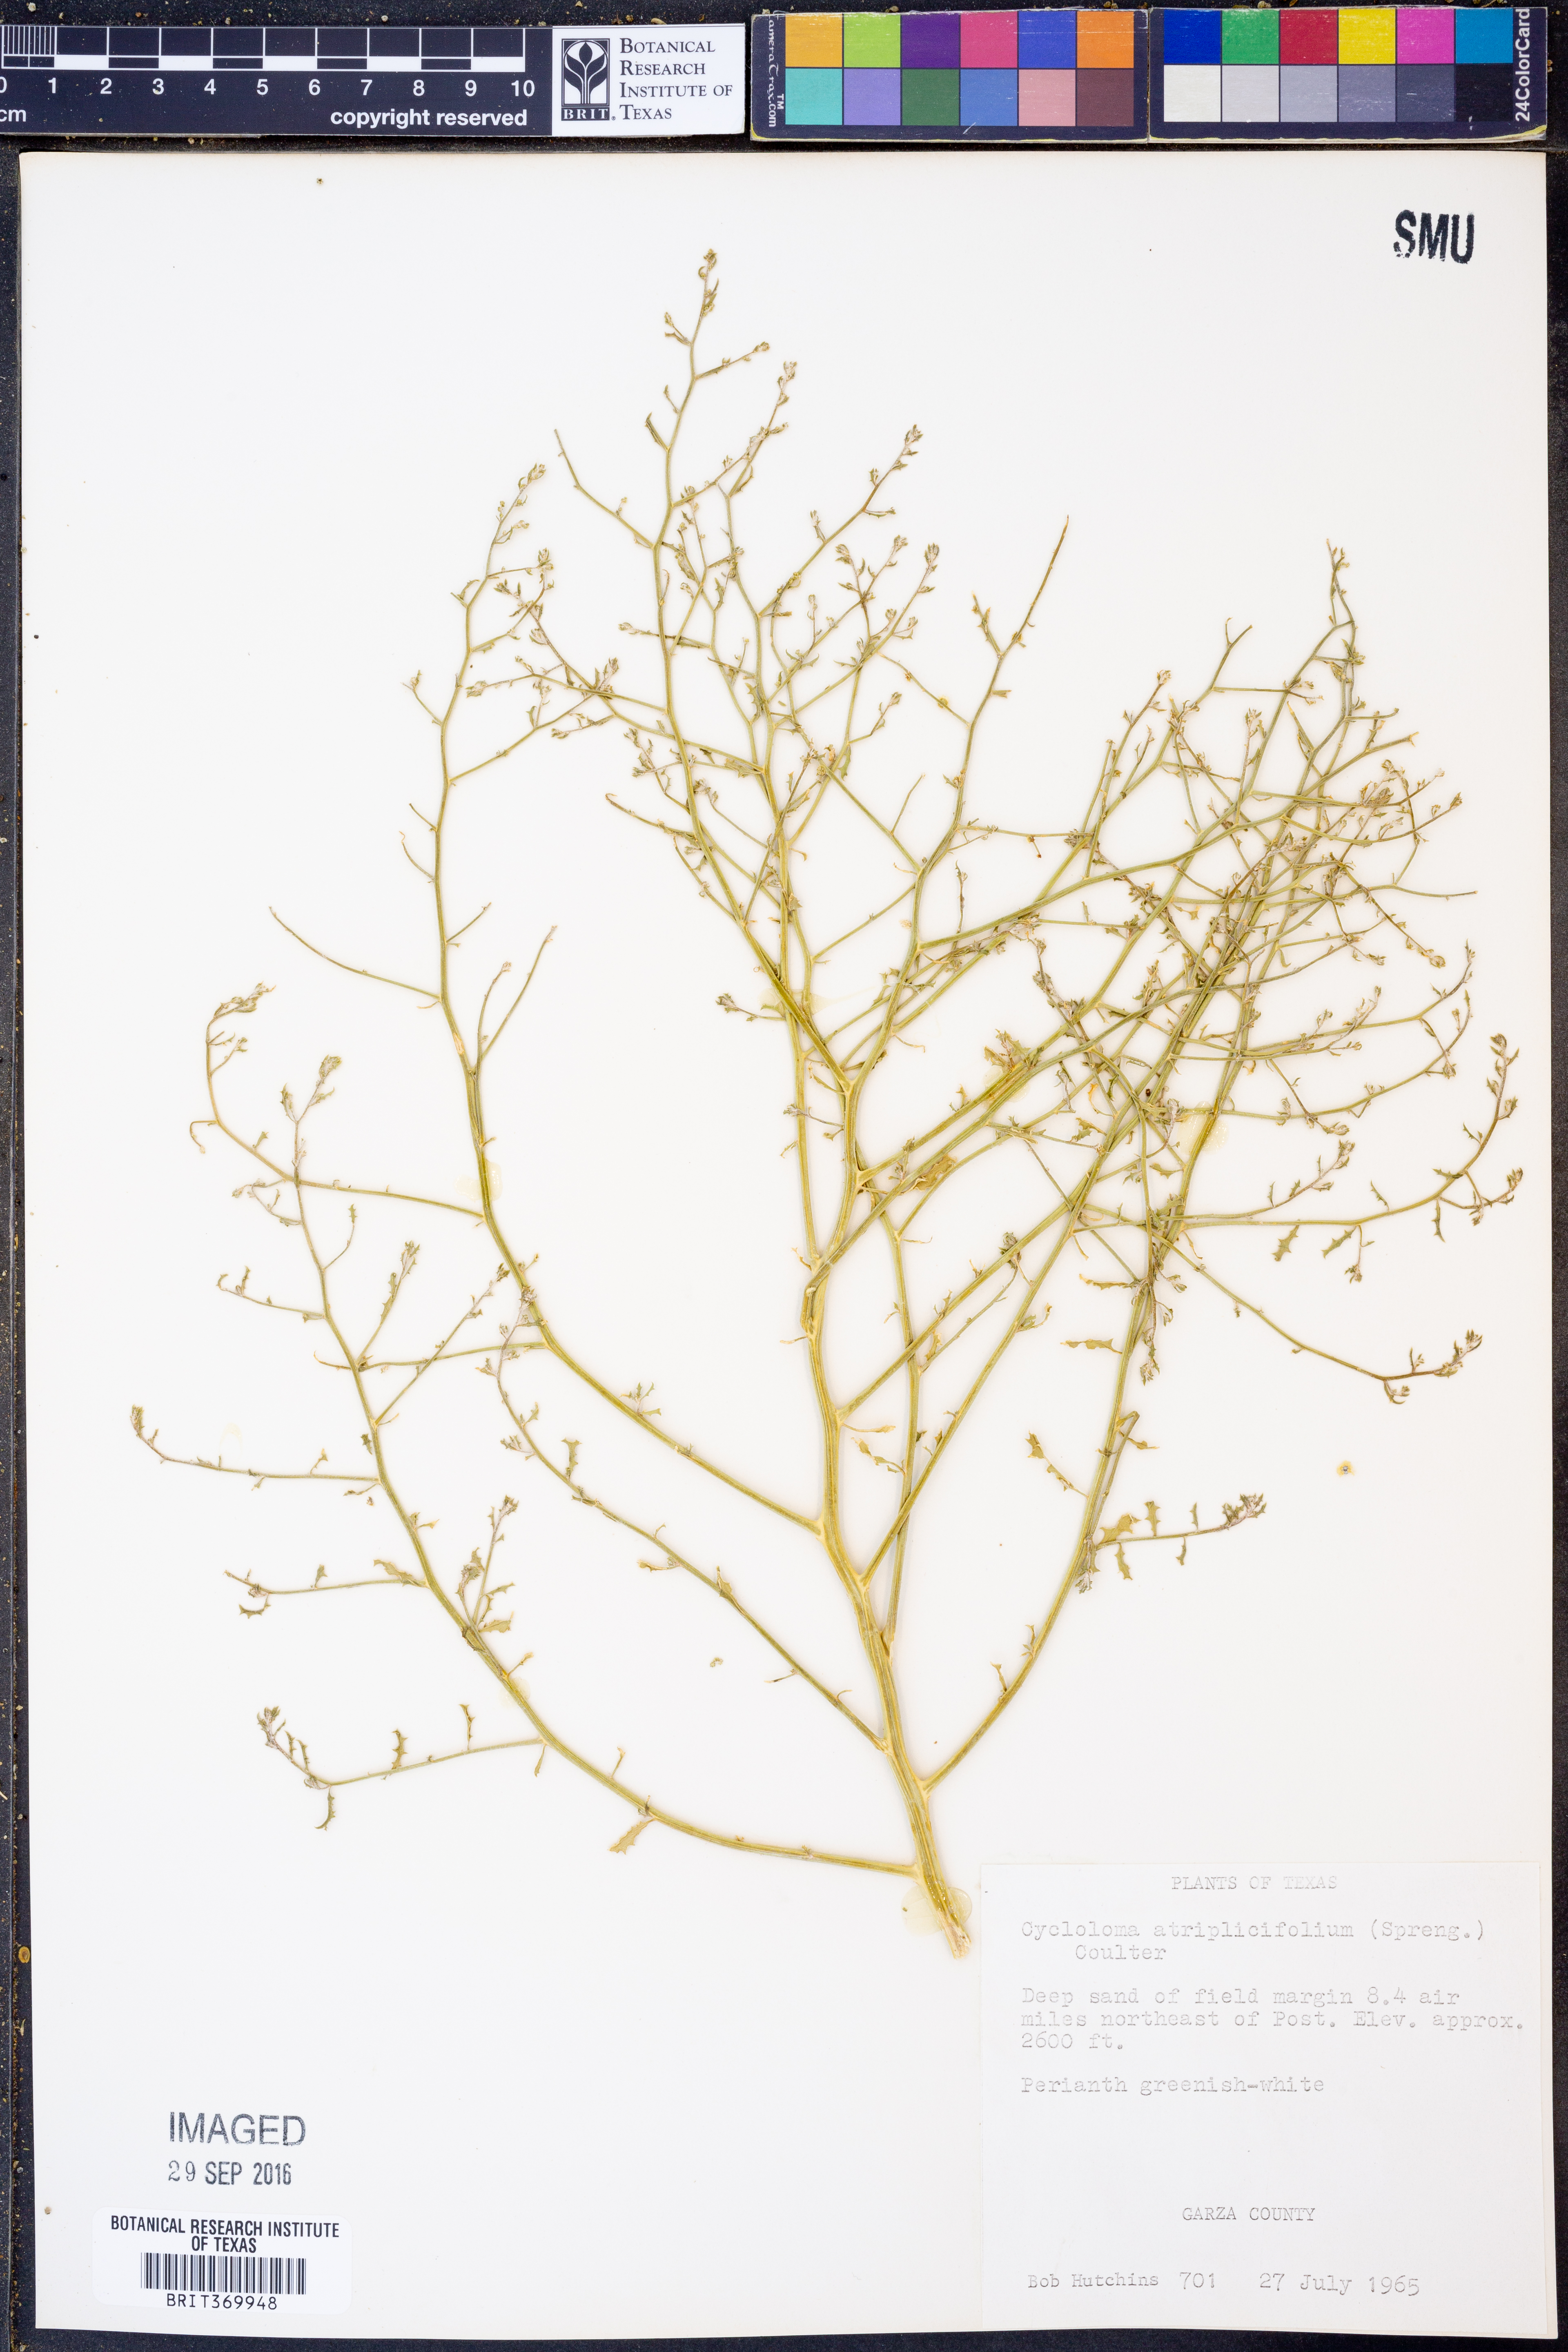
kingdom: Plantae
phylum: Tracheophyta
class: Magnoliopsida
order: Caryophyllales
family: Amaranthaceae
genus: Dysphania
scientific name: Dysphania atriplicifolia
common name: Plains tumbleweed
